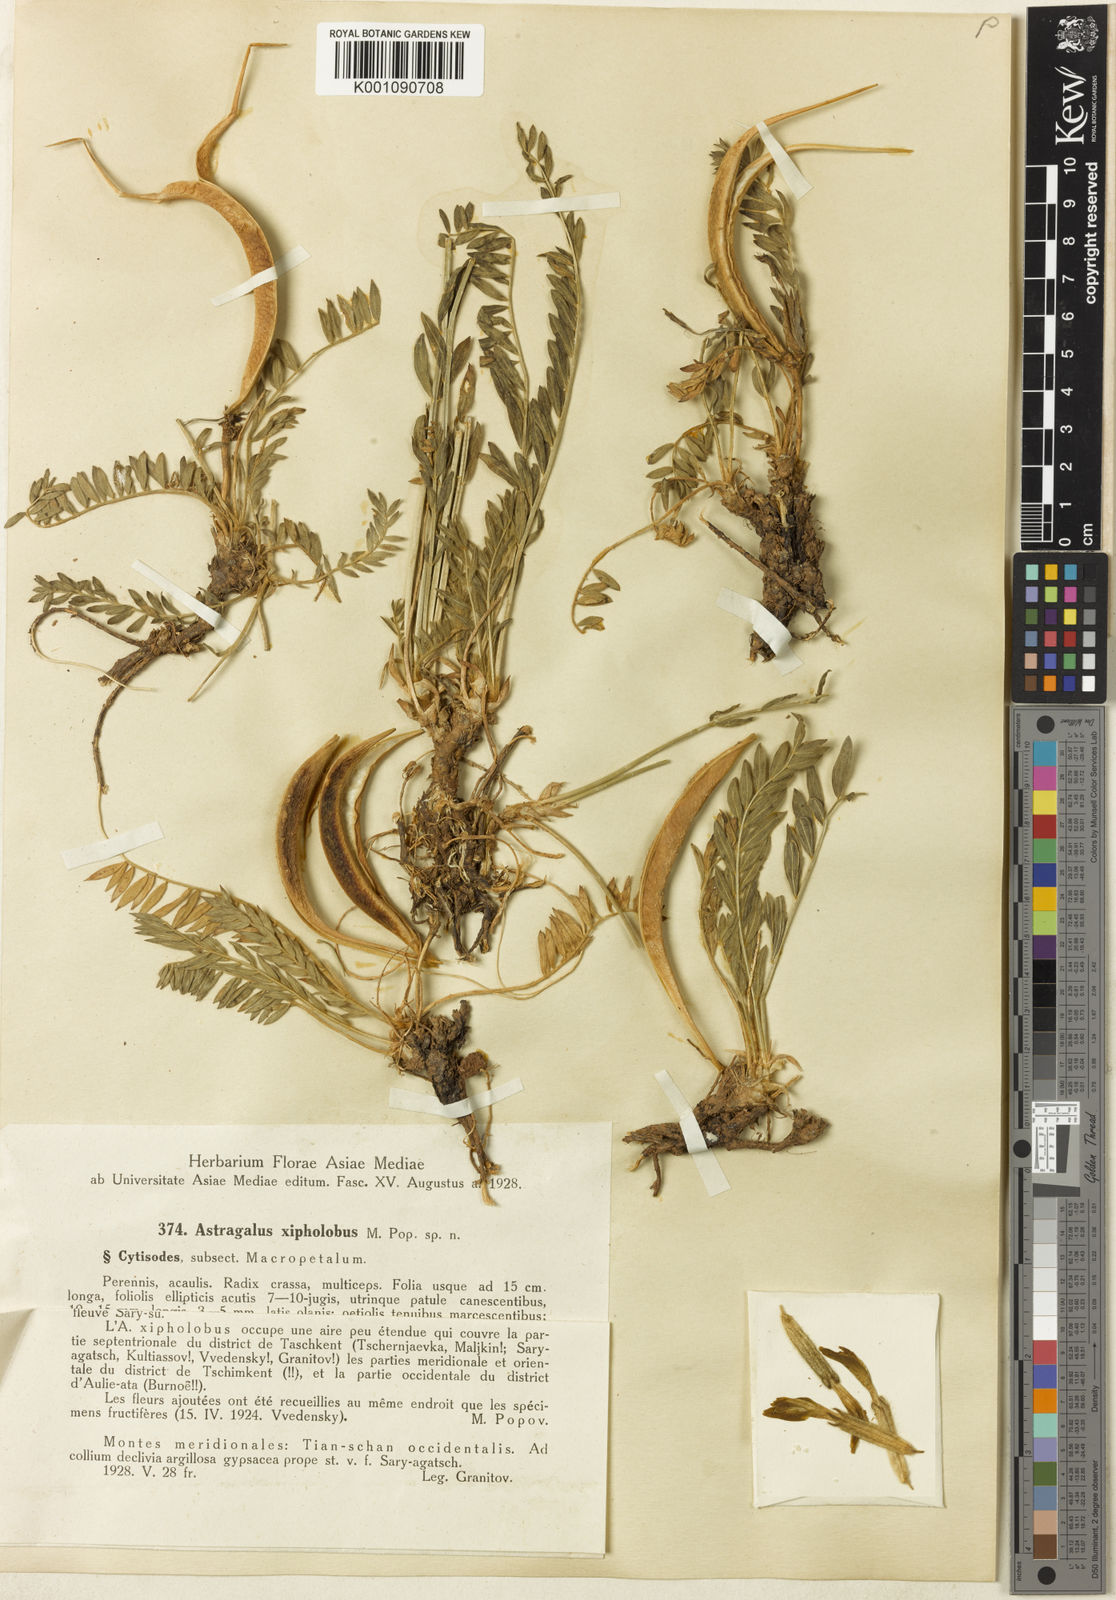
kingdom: Plantae
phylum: Tracheophyta
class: Magnoliopsida
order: Fabales
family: Fabaceae
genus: Astragalus
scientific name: Astragalus
